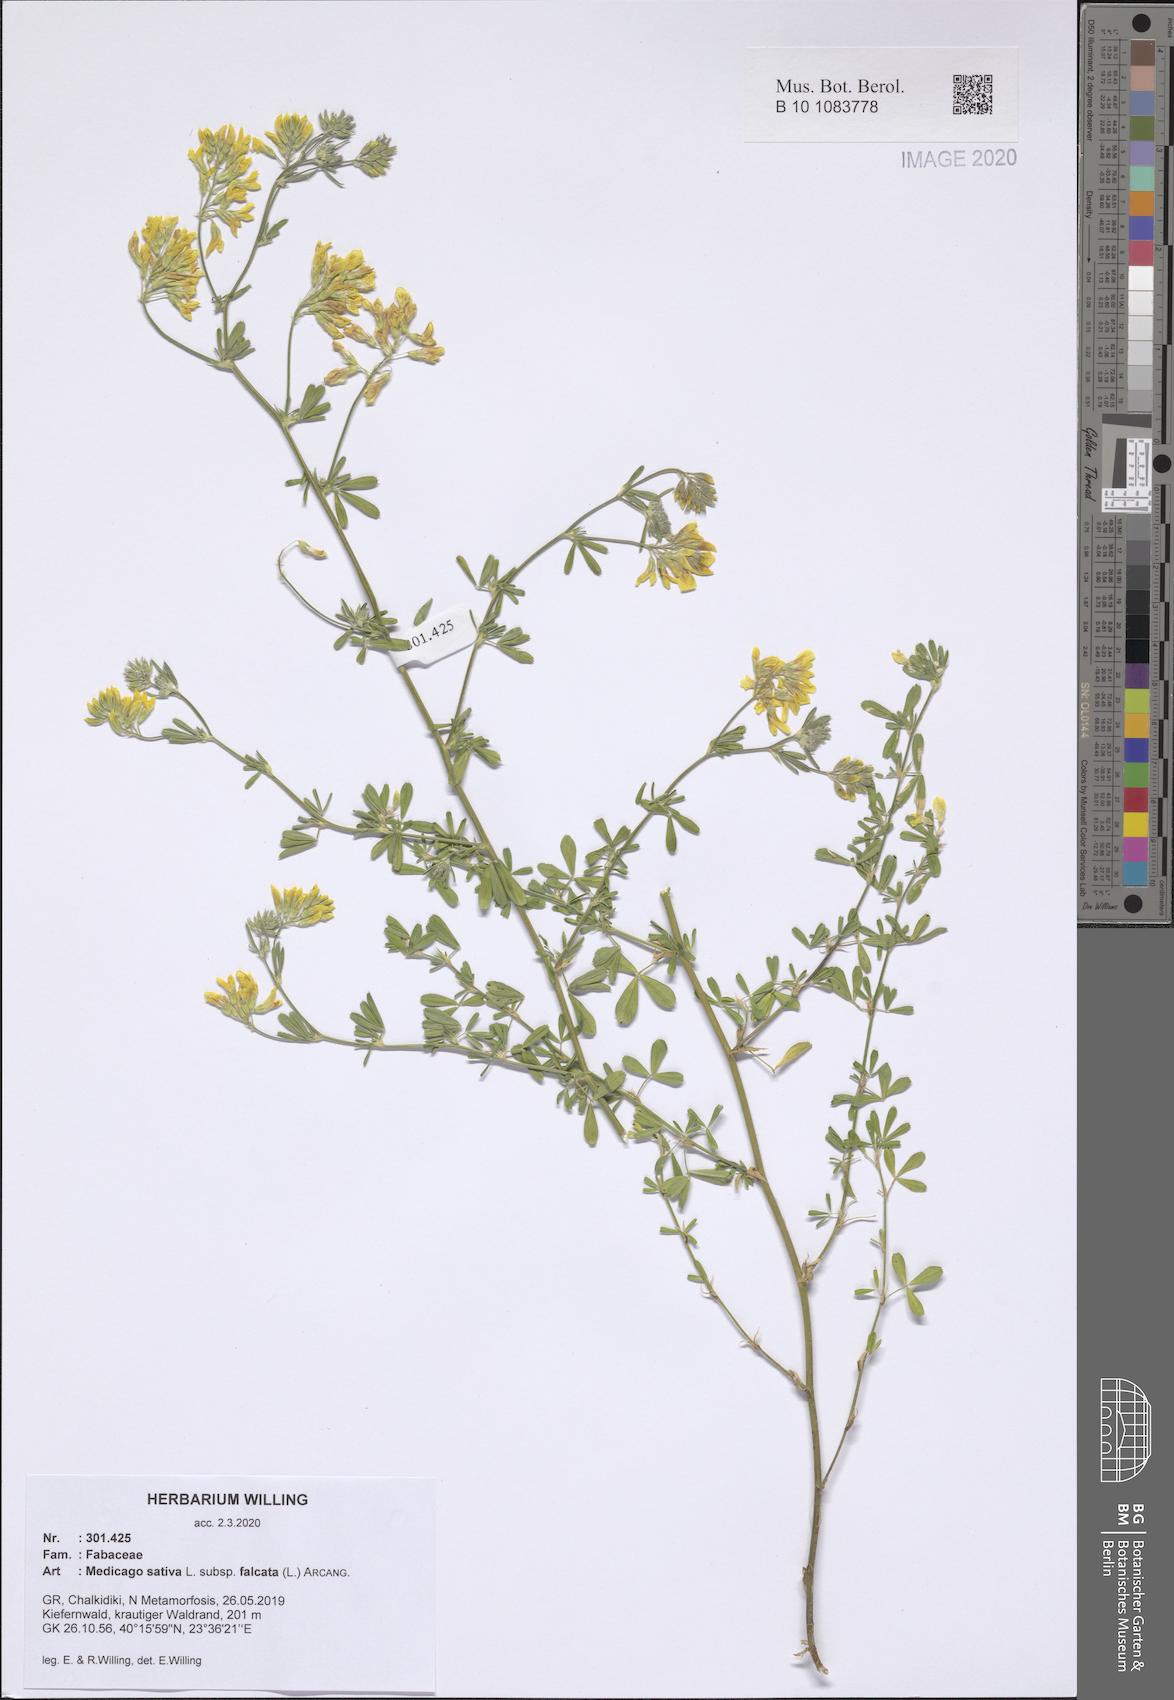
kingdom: Plantae
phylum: Tracheophyta
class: Magnoliopsida
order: Fabales
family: Fabaceae
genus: Medicago
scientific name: Medicago falcata
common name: Sickle medick
